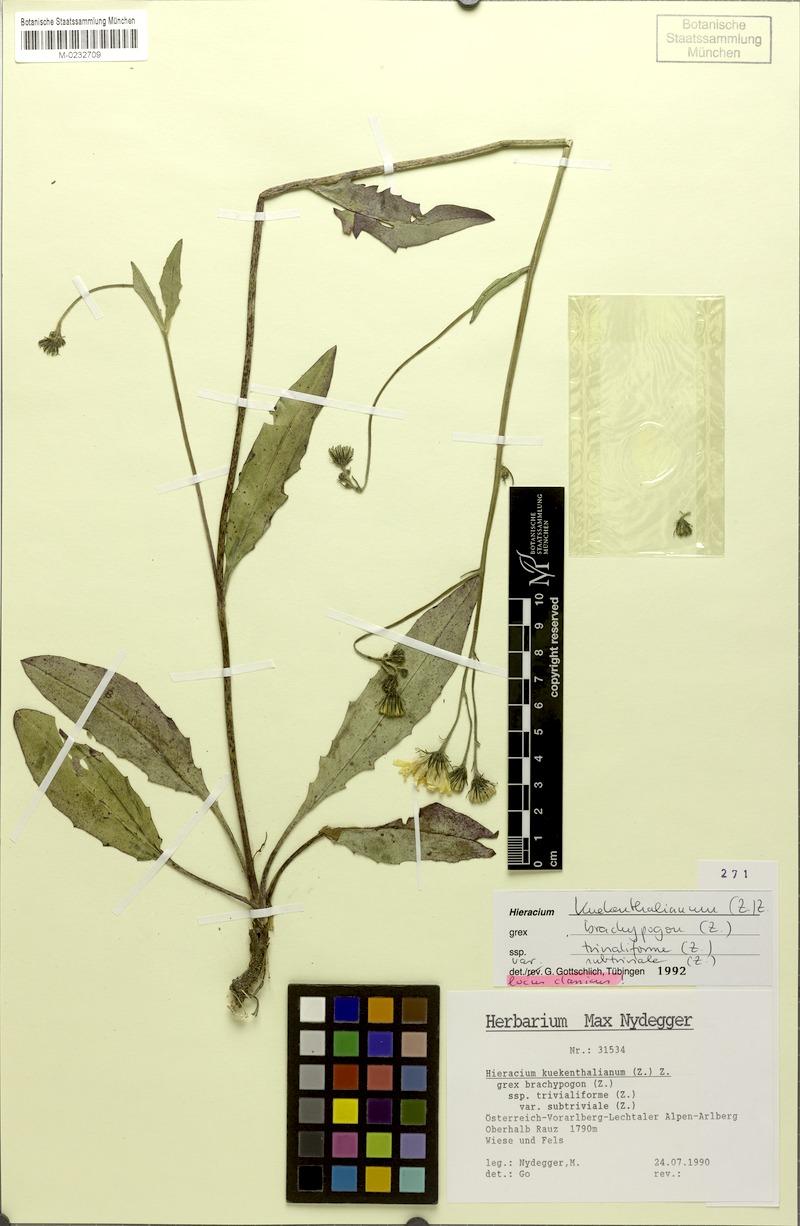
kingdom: Plantae
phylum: Tracheophyta
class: Magnoliopsida
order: Asterales
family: Asteraceae
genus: Hieracium
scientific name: Hieracium kuekenthalianum
